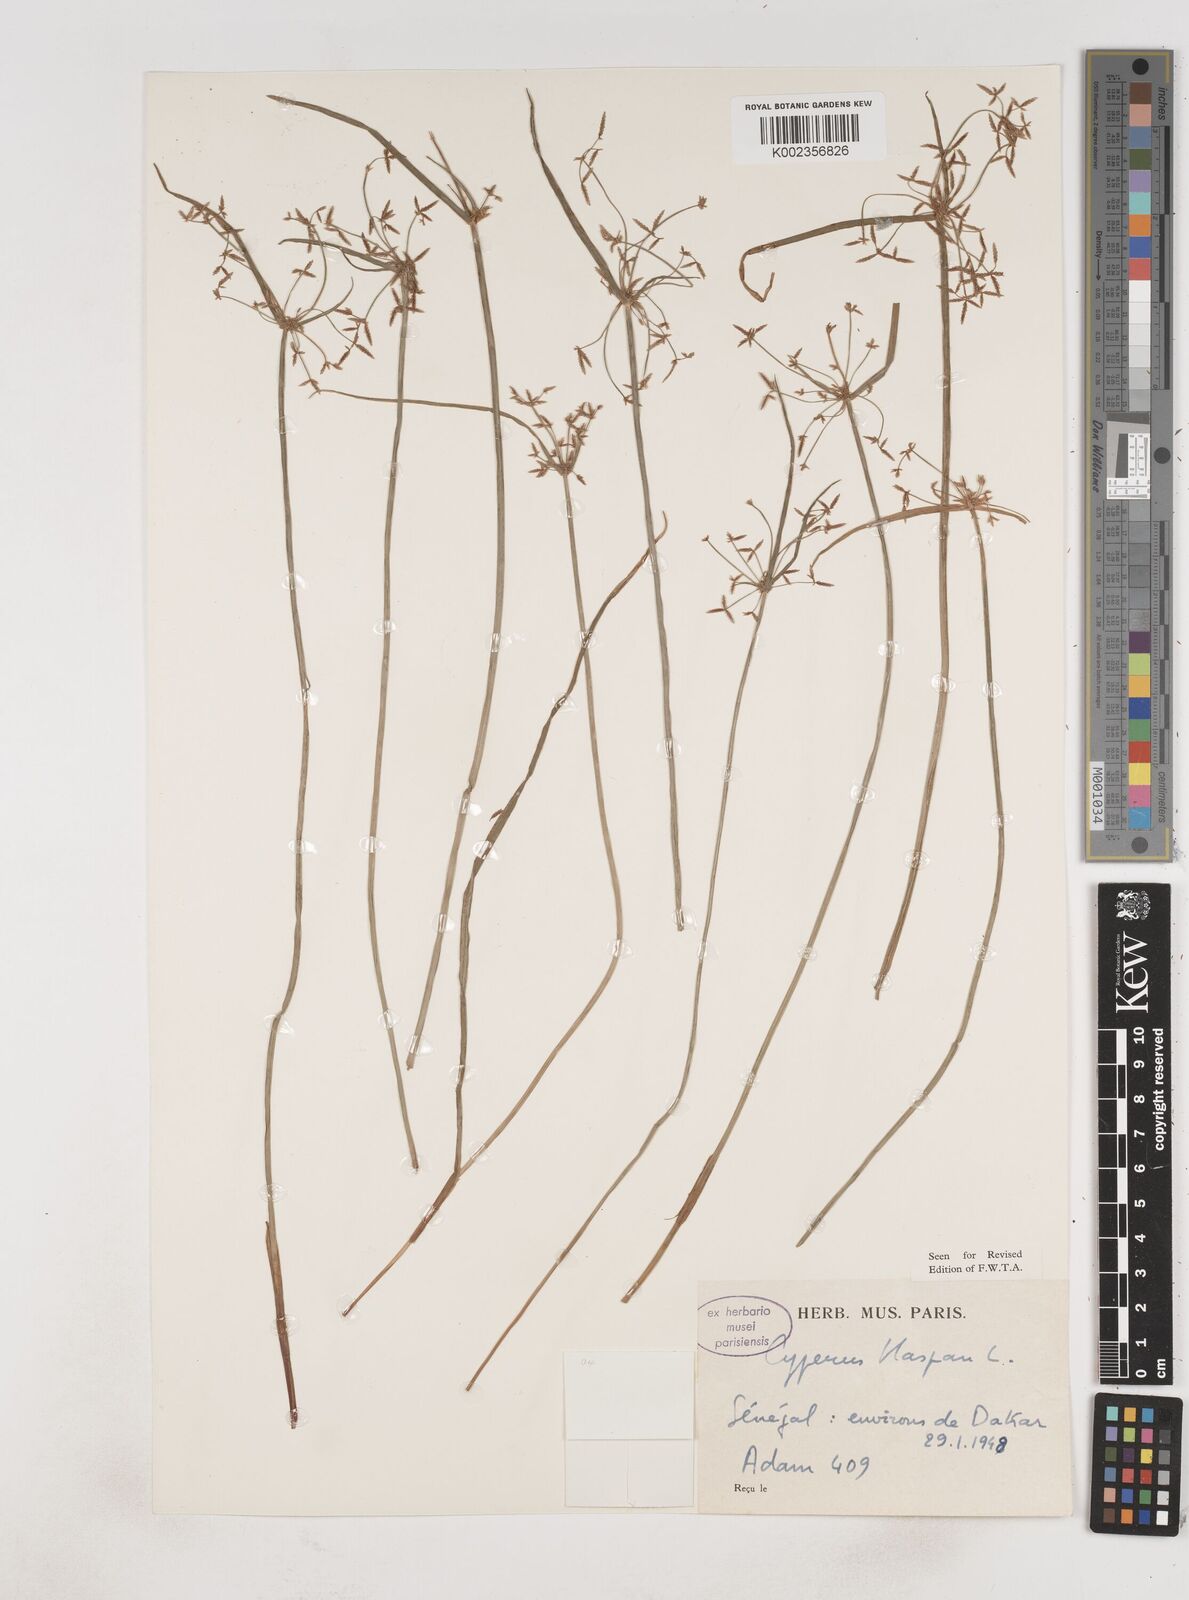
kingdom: Plantae
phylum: Tracheophyta
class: Liliopsida
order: Poales
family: Cyperaceae
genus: Cyperus
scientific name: Cyperus haspan
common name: Haspan flatsedge
